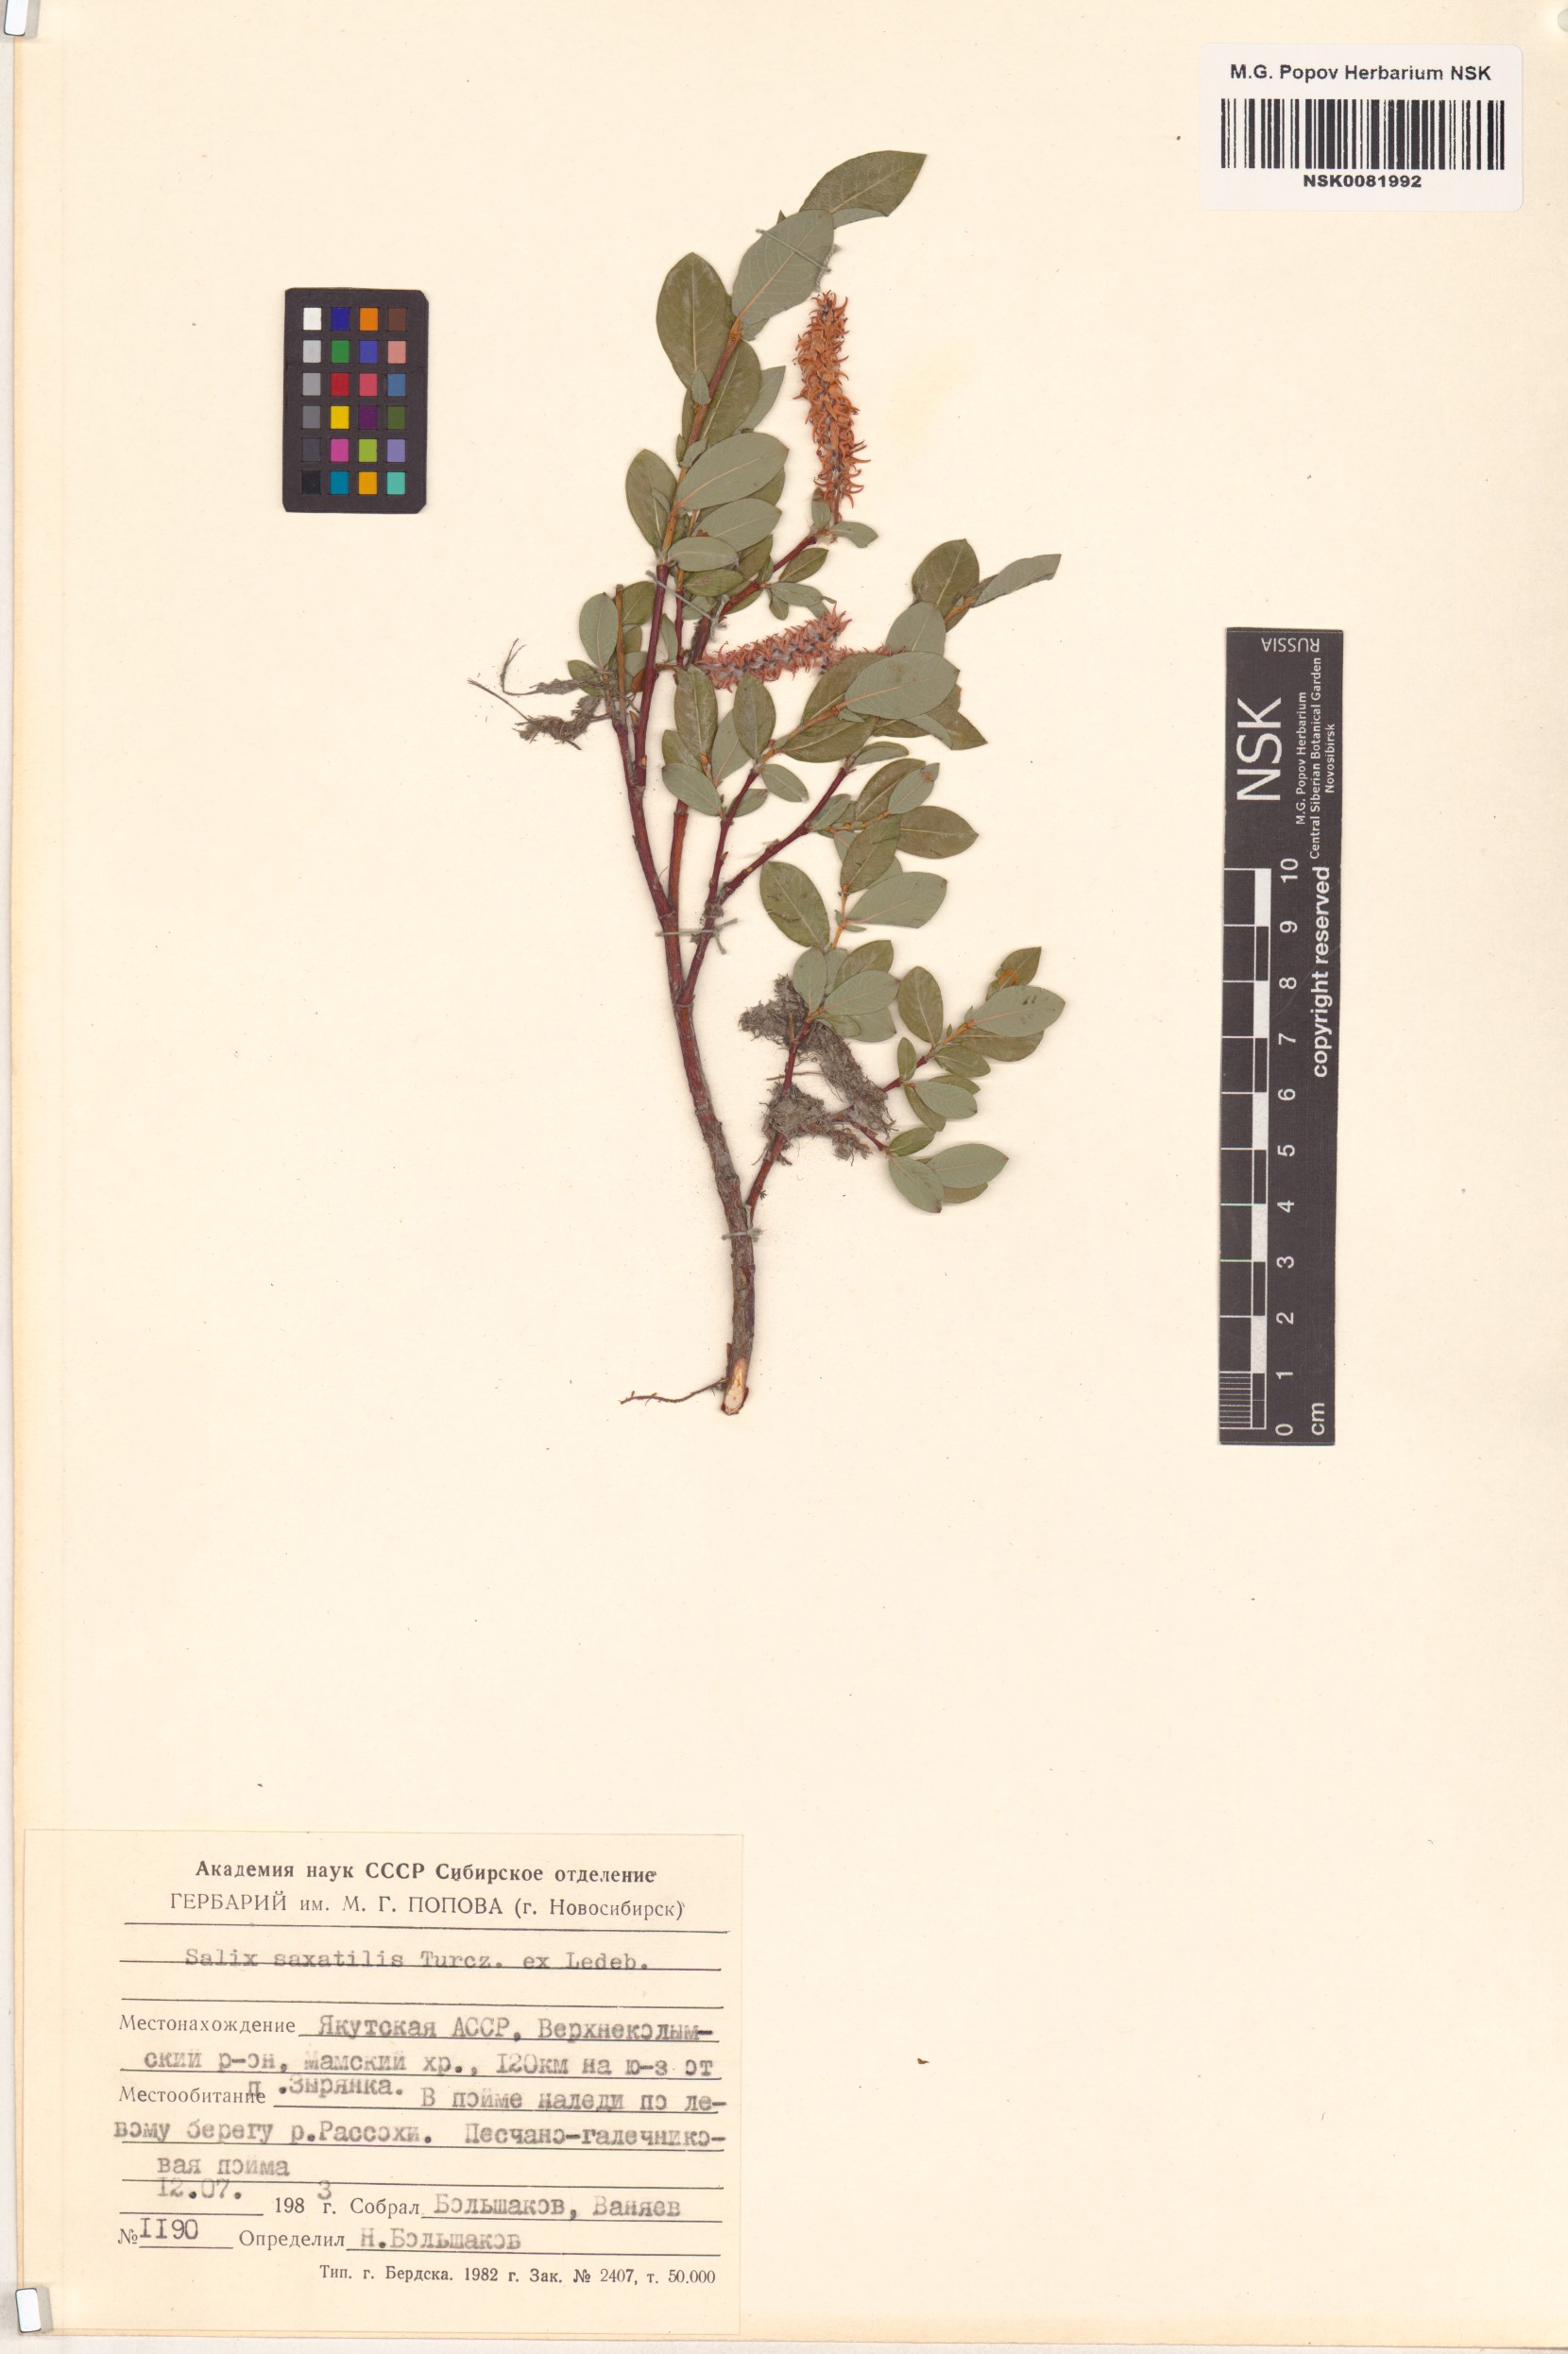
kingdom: Plantae
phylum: Tracheophyta
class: Magnoliopsida
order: Malpighiales
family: Salicaceae
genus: Salix
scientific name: Salix saxatilis
